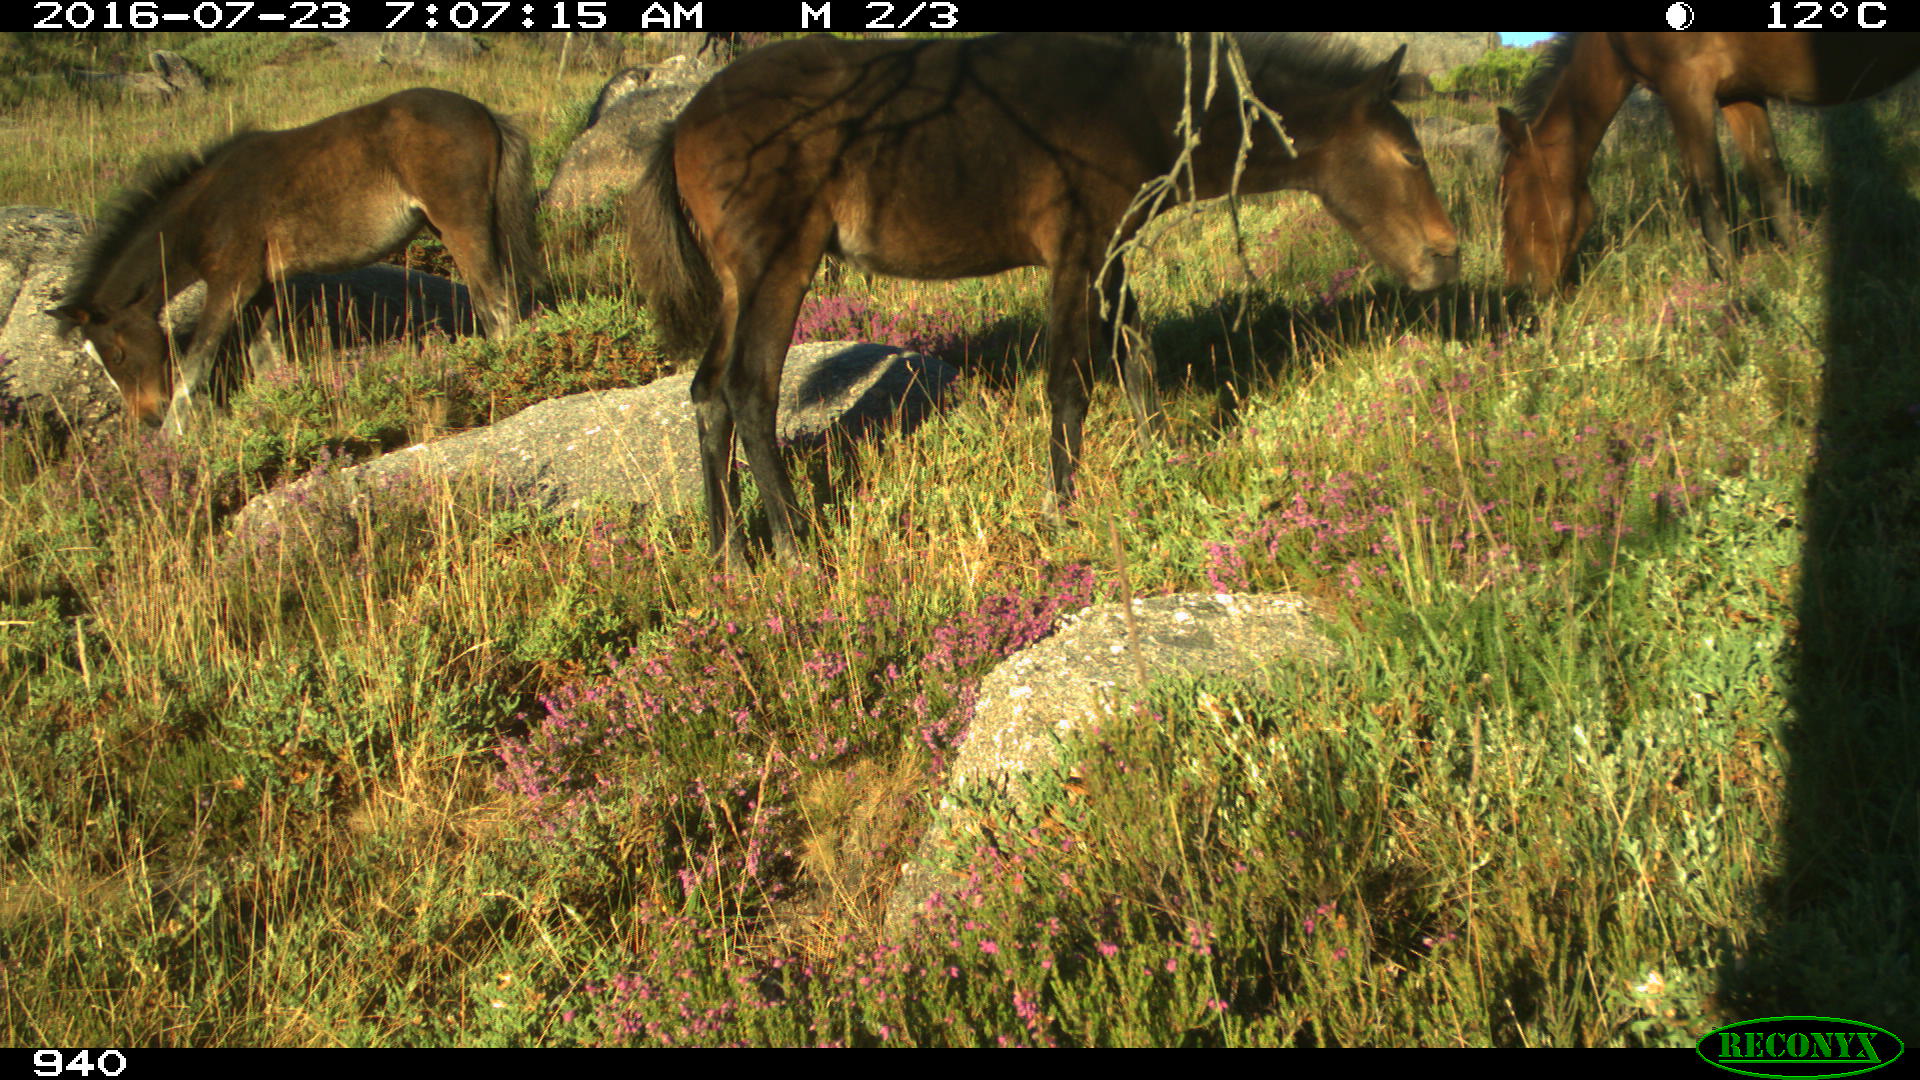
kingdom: Animalia
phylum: Chordata
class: Mammalia
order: Perissodactyla
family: Equidae
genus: Equus
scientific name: Equus caballus
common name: Horse
